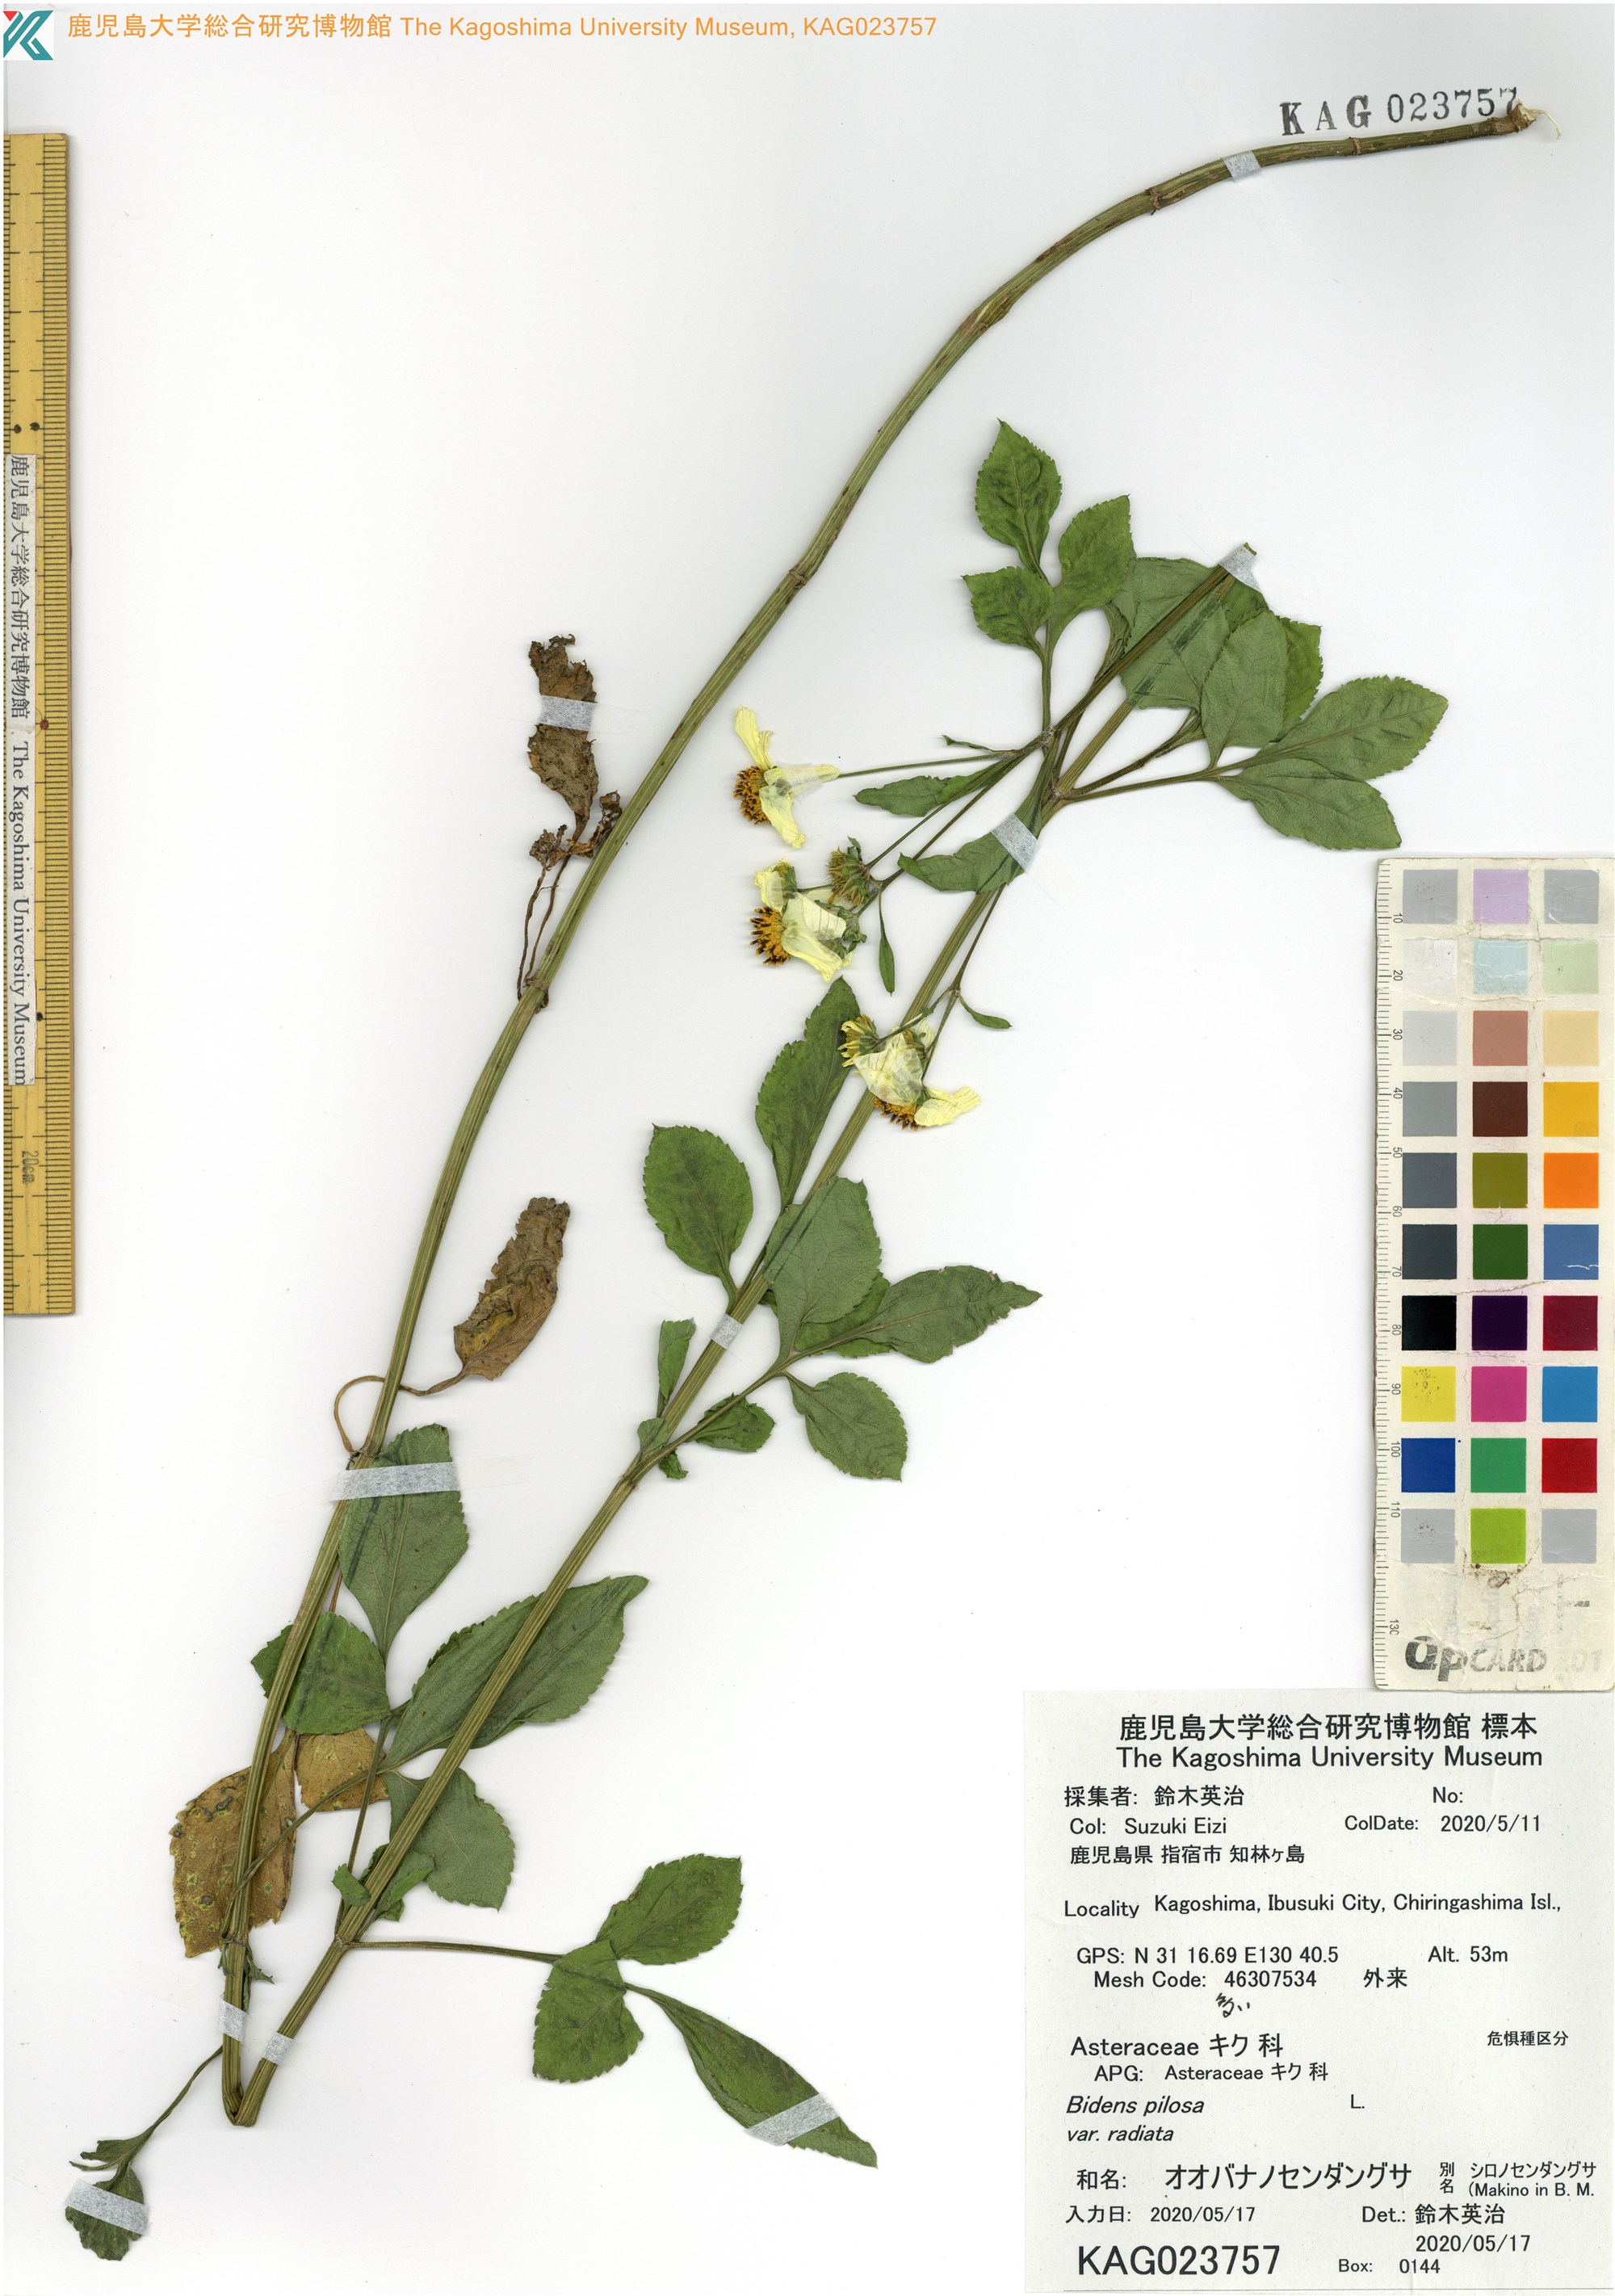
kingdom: Plantae
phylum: Tracheophyta
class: Magnoliopsida
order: Asterales
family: Asteraceae
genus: Bidens
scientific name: Bidens pilosa
